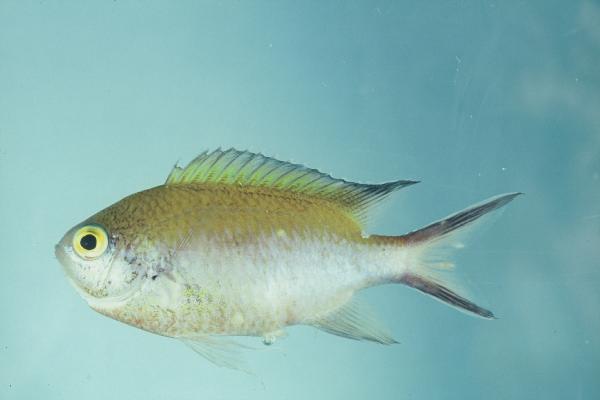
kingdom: Animalia
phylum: Chordata
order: Perciformes
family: Pomacentridae
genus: Chromis
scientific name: Chromis fumea
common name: Smokey chromis
